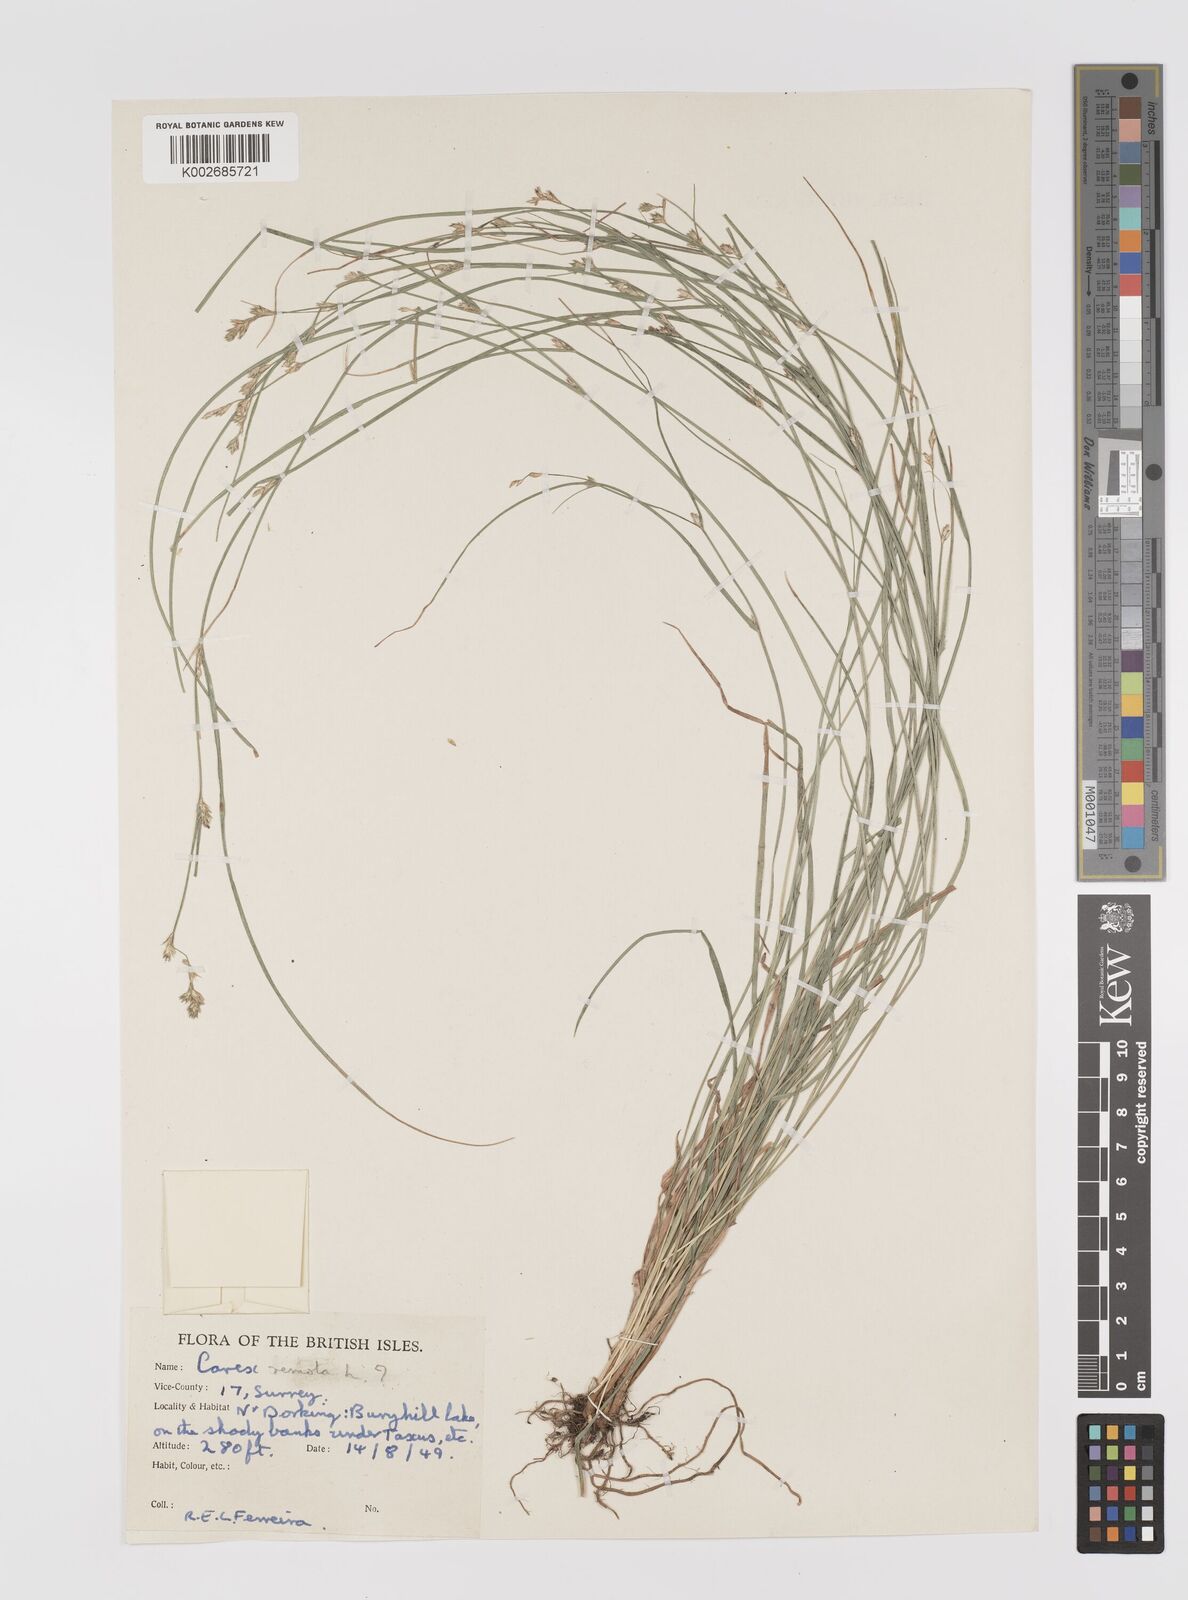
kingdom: Plantae
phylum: Tracheophyta
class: Liliopsida
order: Poales
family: Cyperaceae
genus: Carex
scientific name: Carex remota
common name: Remote sedge
